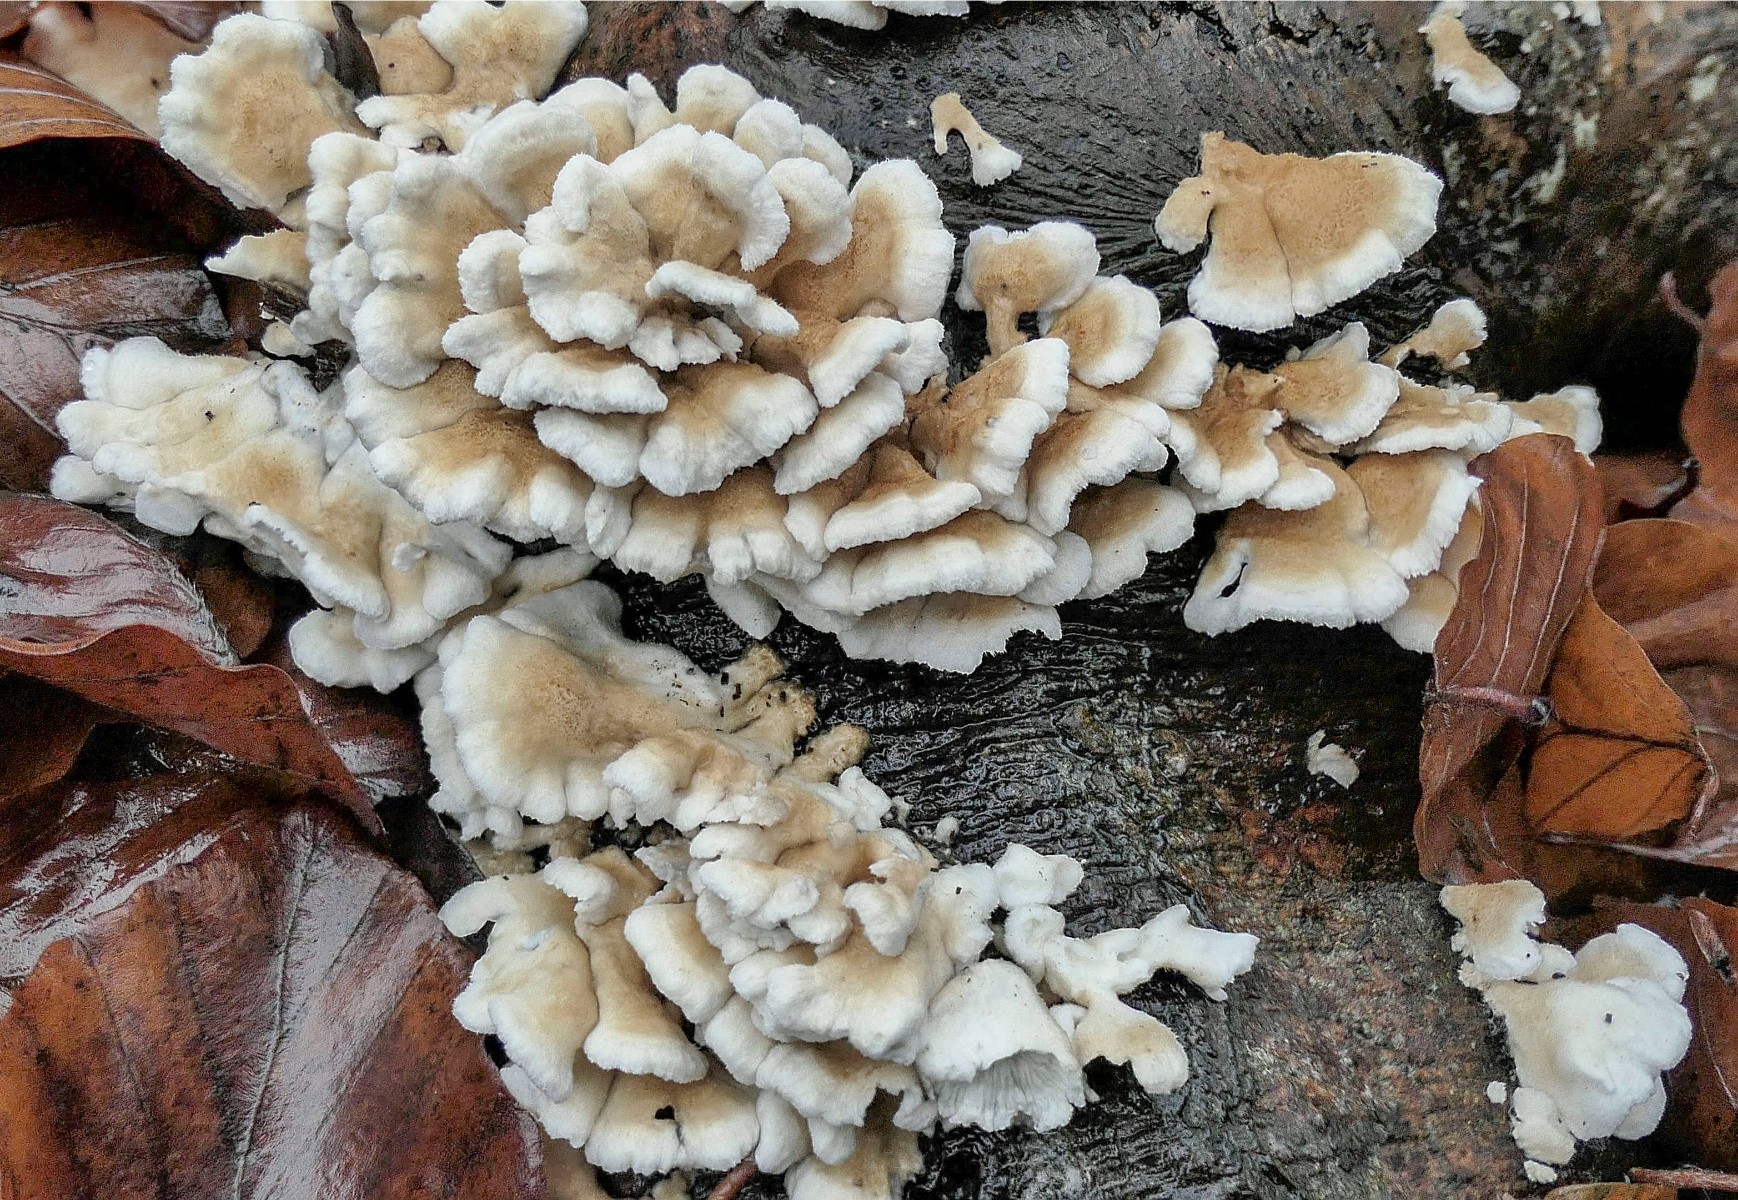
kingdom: Fungi
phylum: Basidiomycota
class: Agaricomycetes
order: Amylocorticiales
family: Amylocorticiaceae
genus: Plicaturopsis
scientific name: Plicaturopsis crispa
